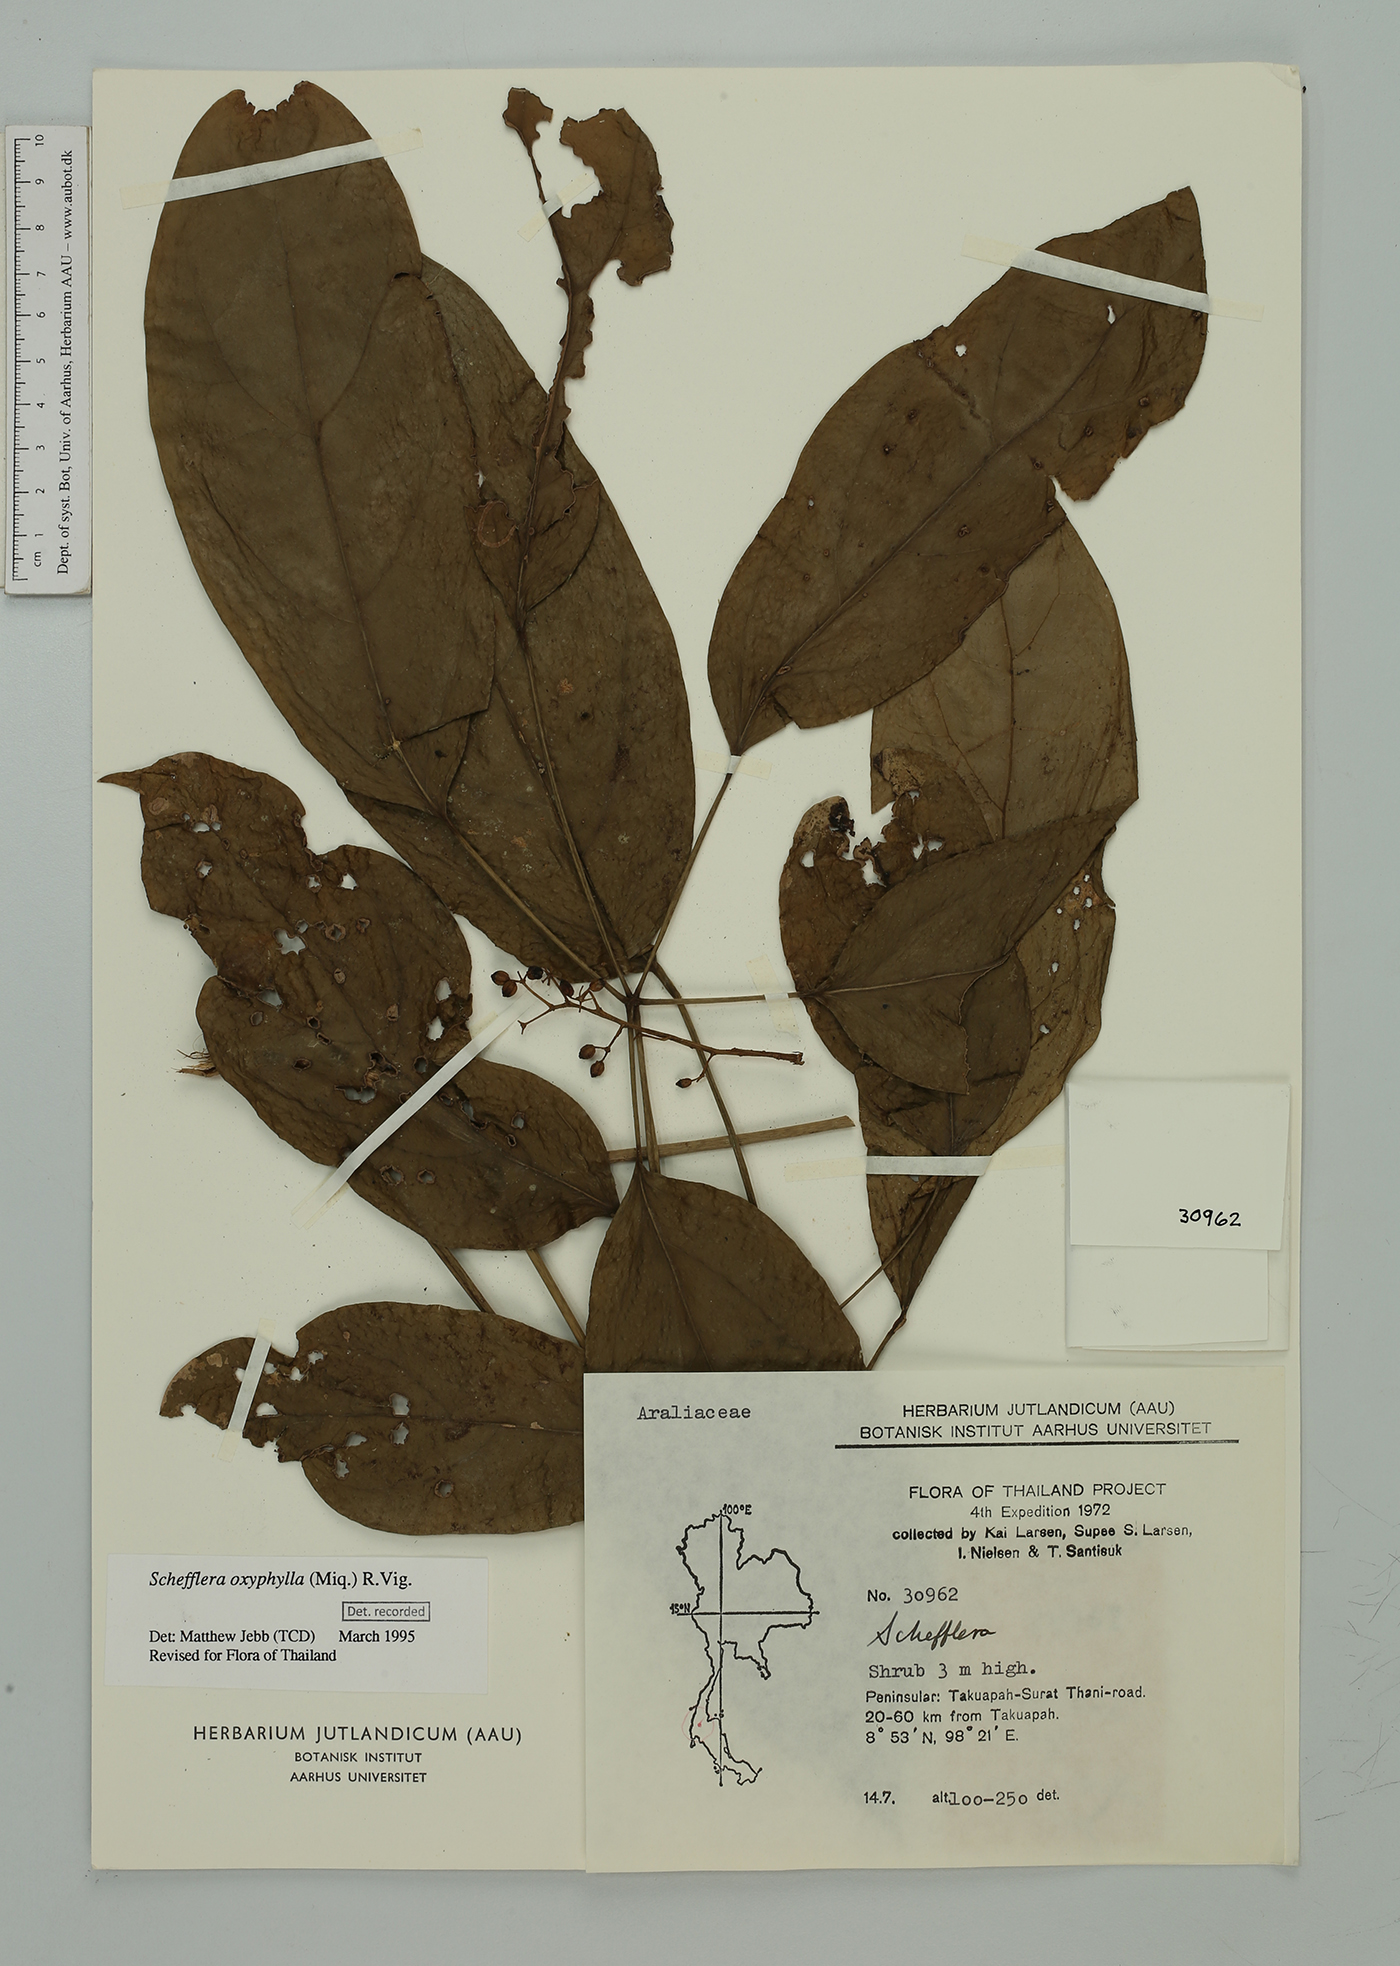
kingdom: Plantae
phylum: Tracheophyta
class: Magnoliopsida
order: Apiales
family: Araliaceae
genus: Heptapleurum
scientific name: Heptapleurum oxyphyllum
